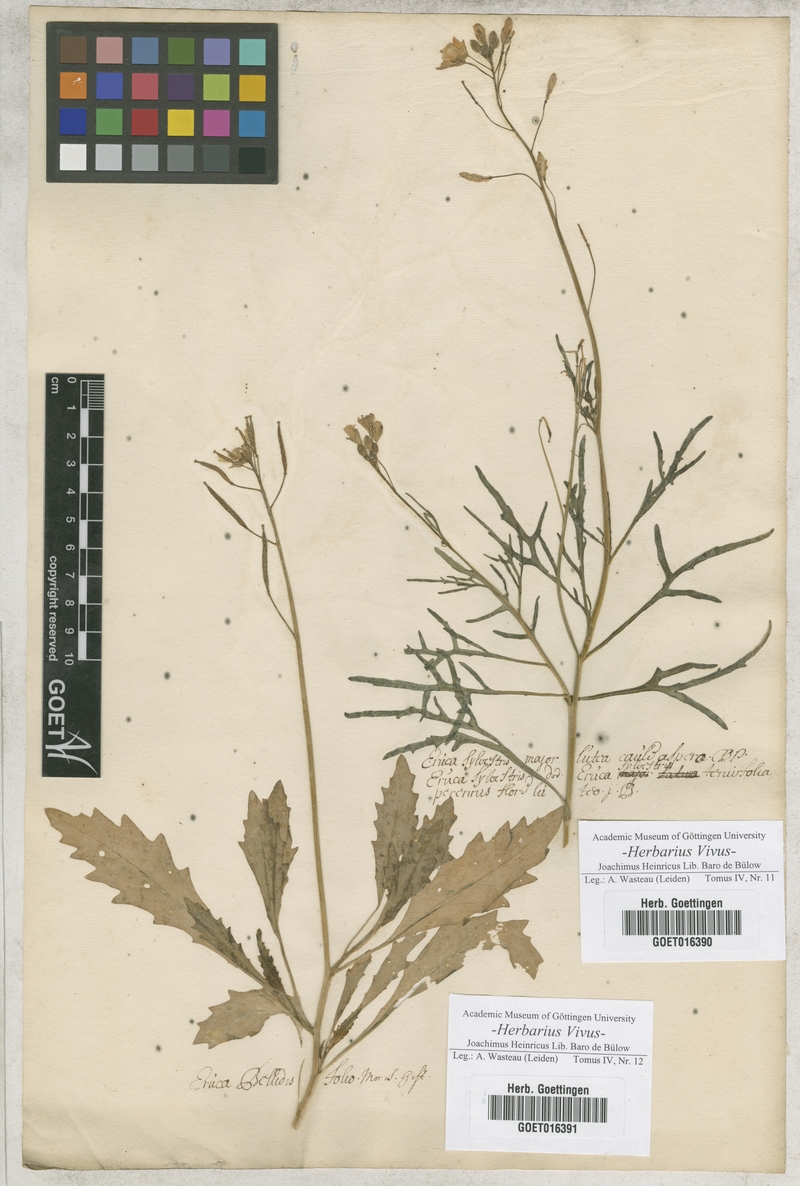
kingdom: Plantae
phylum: Tracheophyta
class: Magnoliopsida
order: Brassicales
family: Brassicaceae
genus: Erucastrum
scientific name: Erucastrum nasturtiifolium
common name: Watercress-leaf rocket
